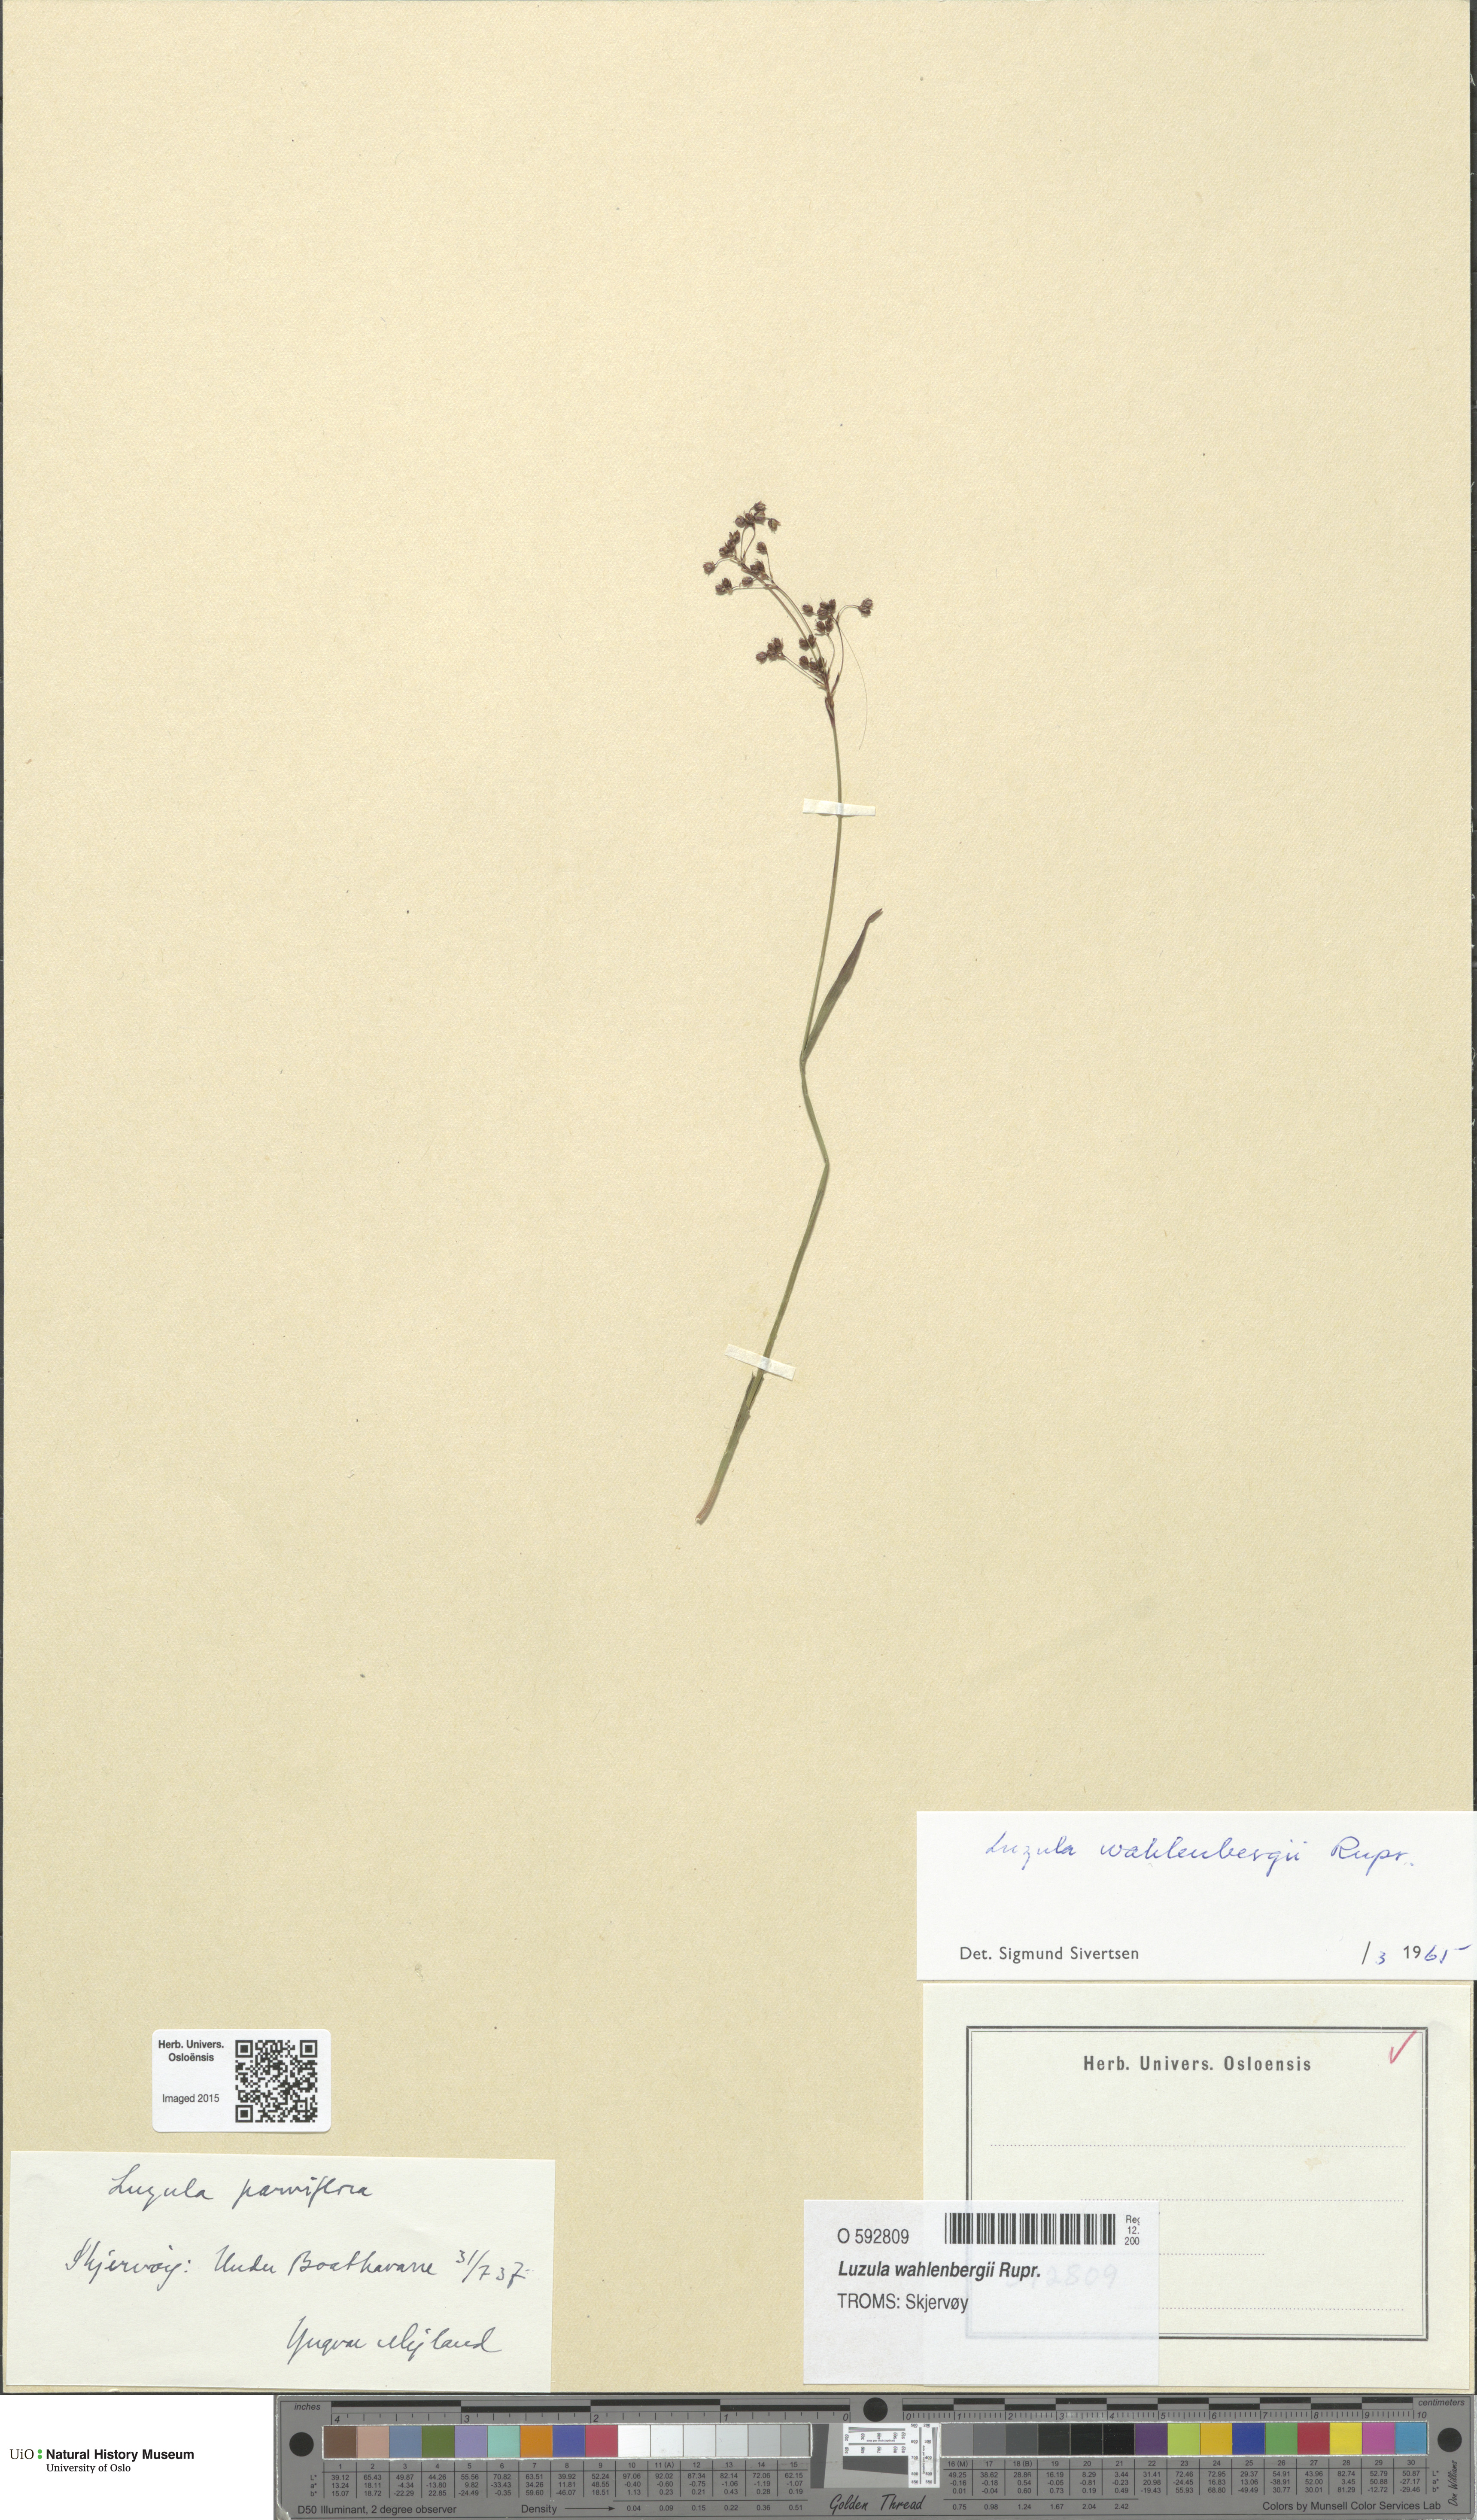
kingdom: Plantae
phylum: Tracheophyta
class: Liliopsida
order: Poales
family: Juncaceae
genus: Luzula
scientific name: Luzula wahlenbergii
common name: Wahlenberg's wood-rush
